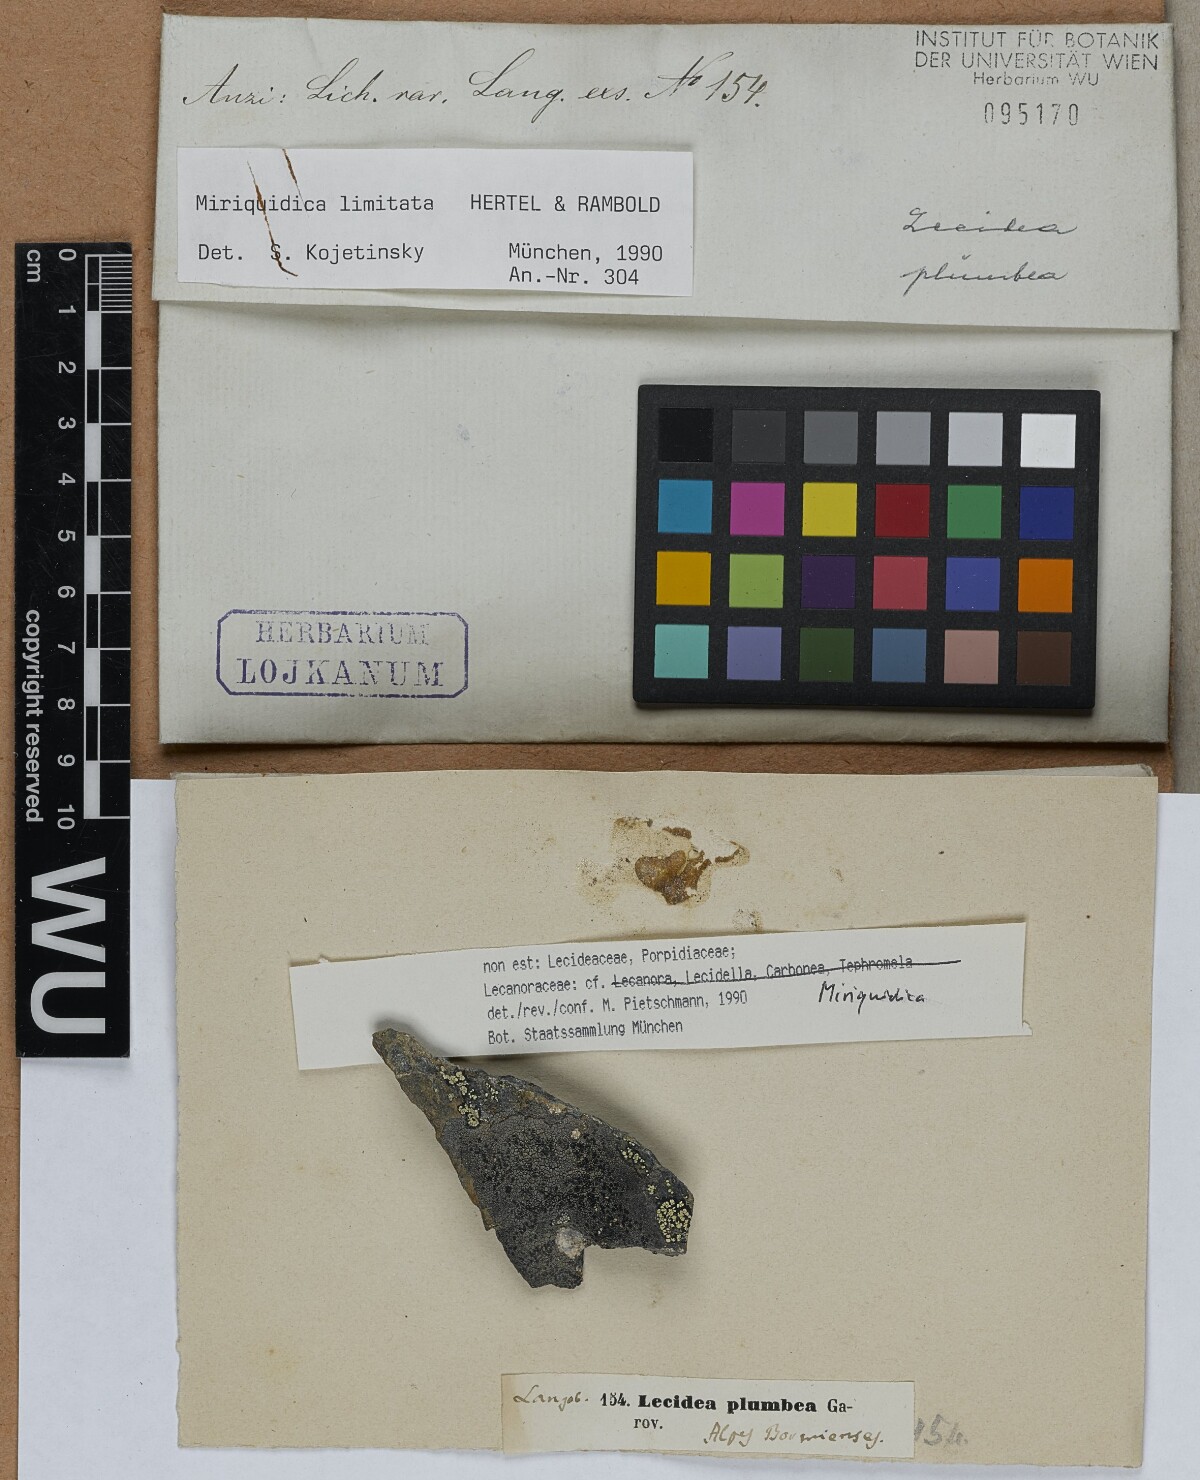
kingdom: Fungi
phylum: Ascomycota
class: Lecanoromycetes
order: Lecanorales
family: Lecanoraceae
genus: Miriquidica
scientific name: Miriquidica
